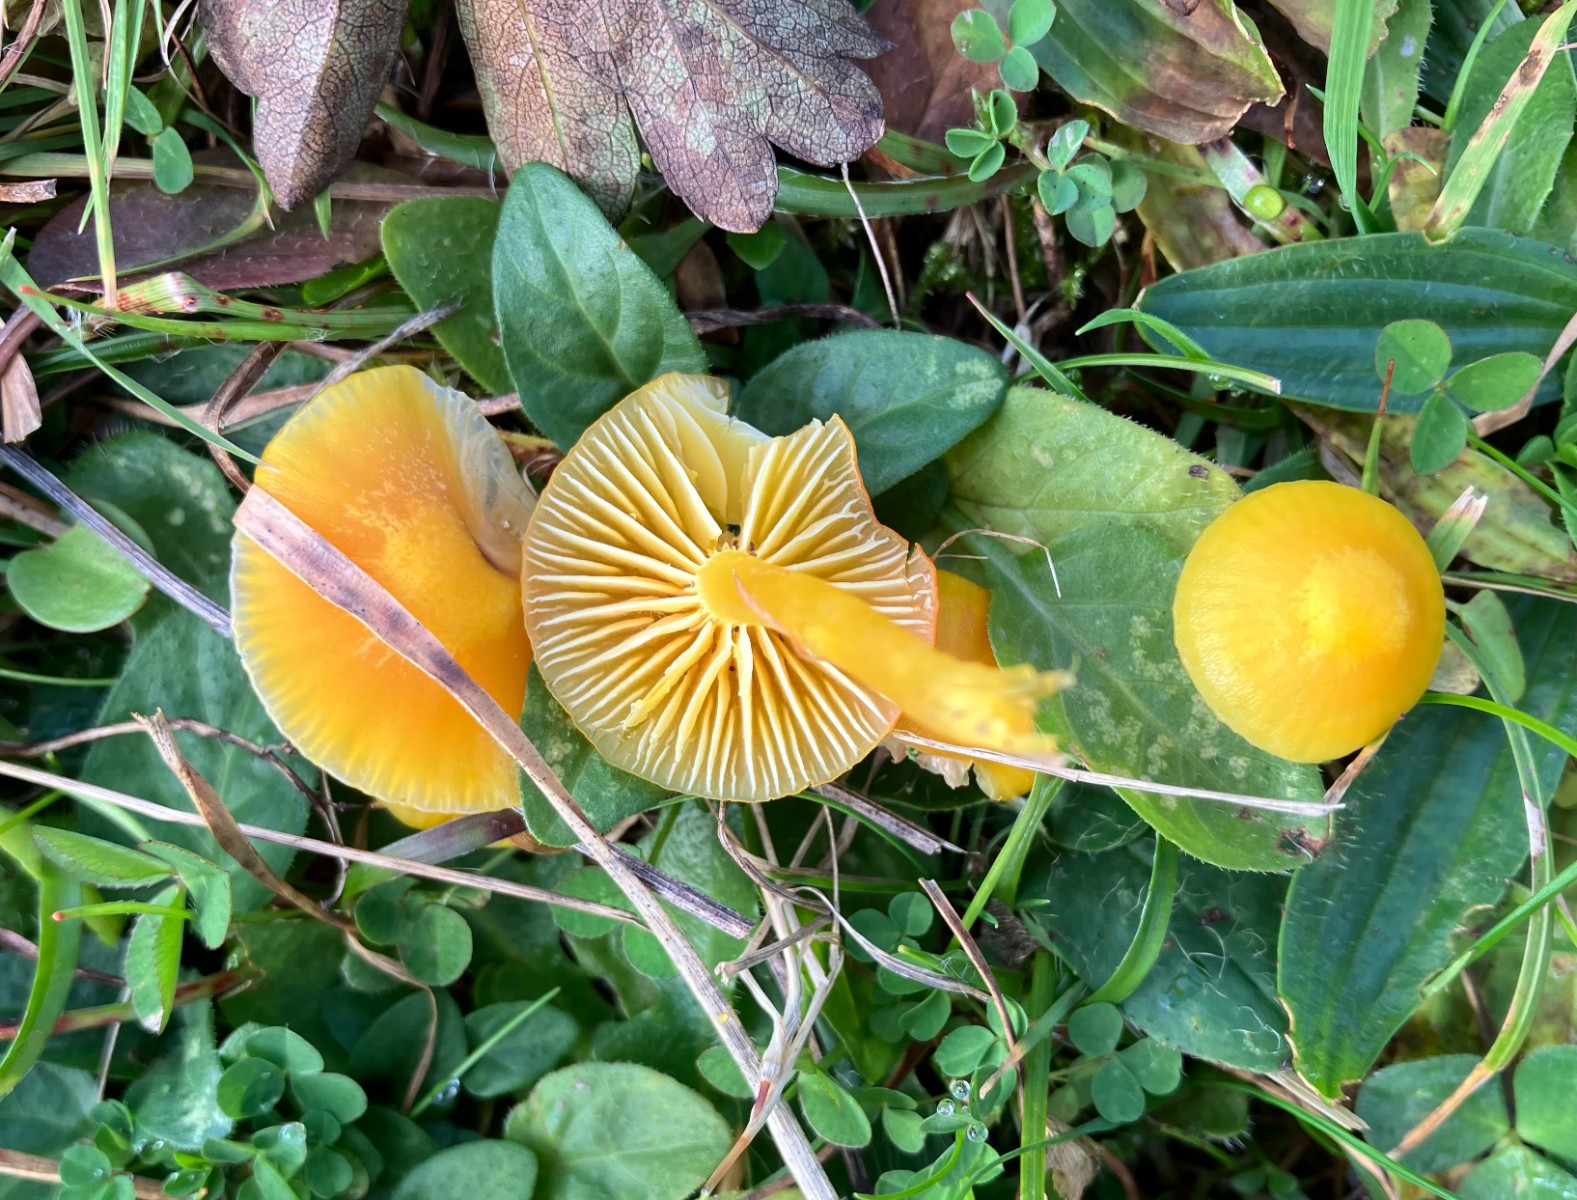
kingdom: Fungi
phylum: Basidiomycota
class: Agaricomycetes
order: Agaricales
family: Hygrophoraceae
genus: Hygrocybe
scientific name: Hygrocybe ceracea
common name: voksgul vokshat
